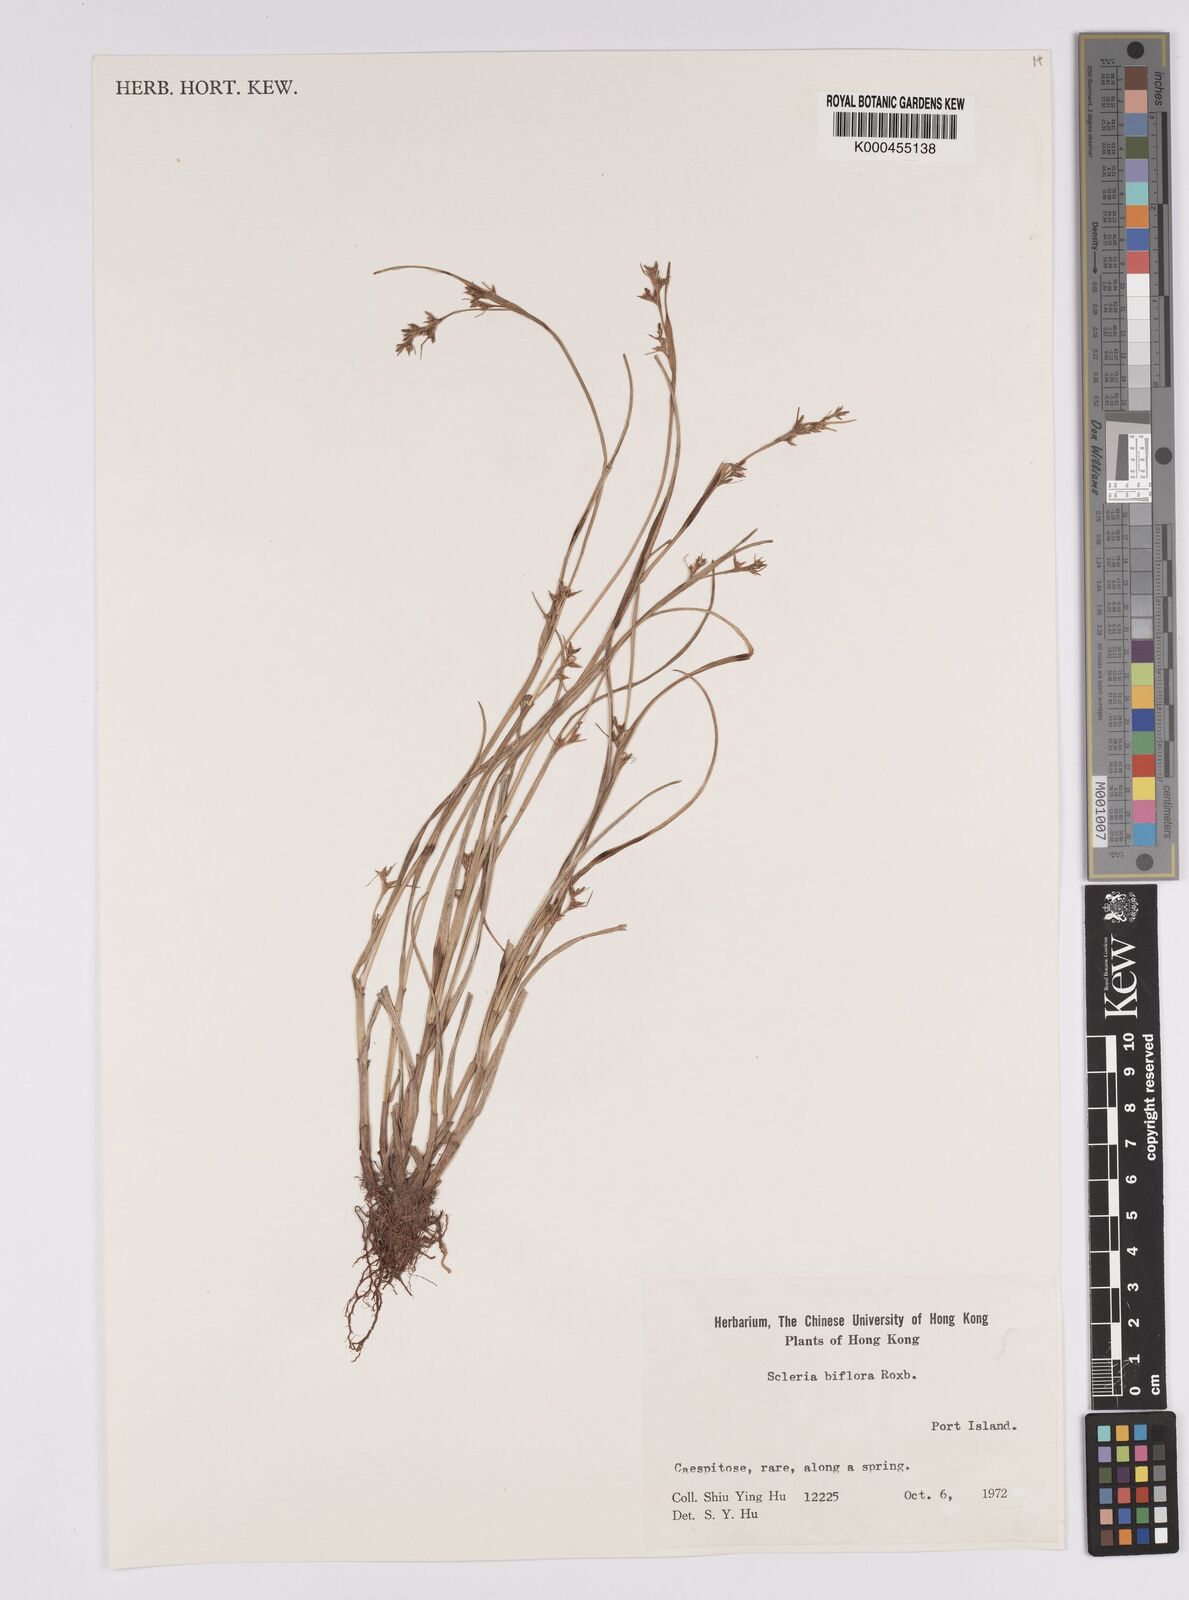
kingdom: Plantae
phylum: Tracheophyta
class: Liliopsida
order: Poales
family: Cyperaceae
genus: Scleria
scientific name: Scleria biflora
